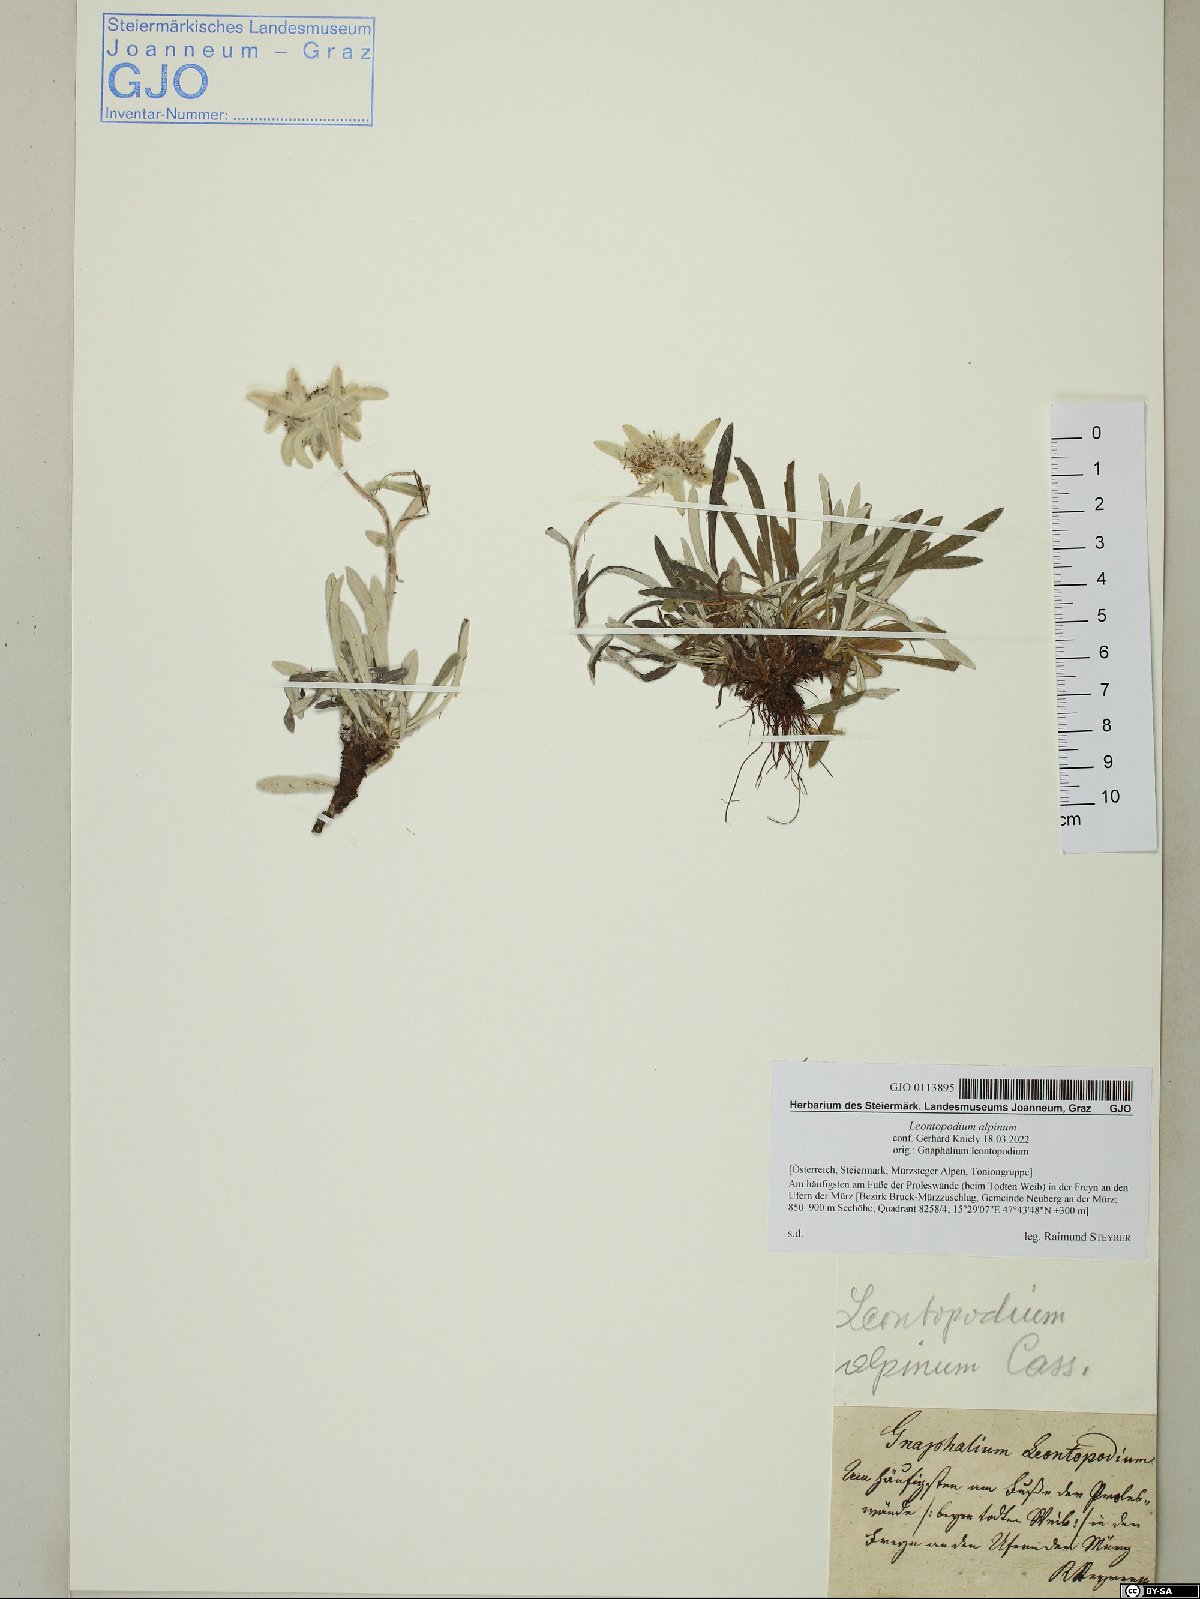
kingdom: Plantae
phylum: Tracheophyta
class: Magnoliopsida
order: Asterales
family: Asteraceae
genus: Leontopodium
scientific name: Leontopodium nivale
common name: Edelweiss
